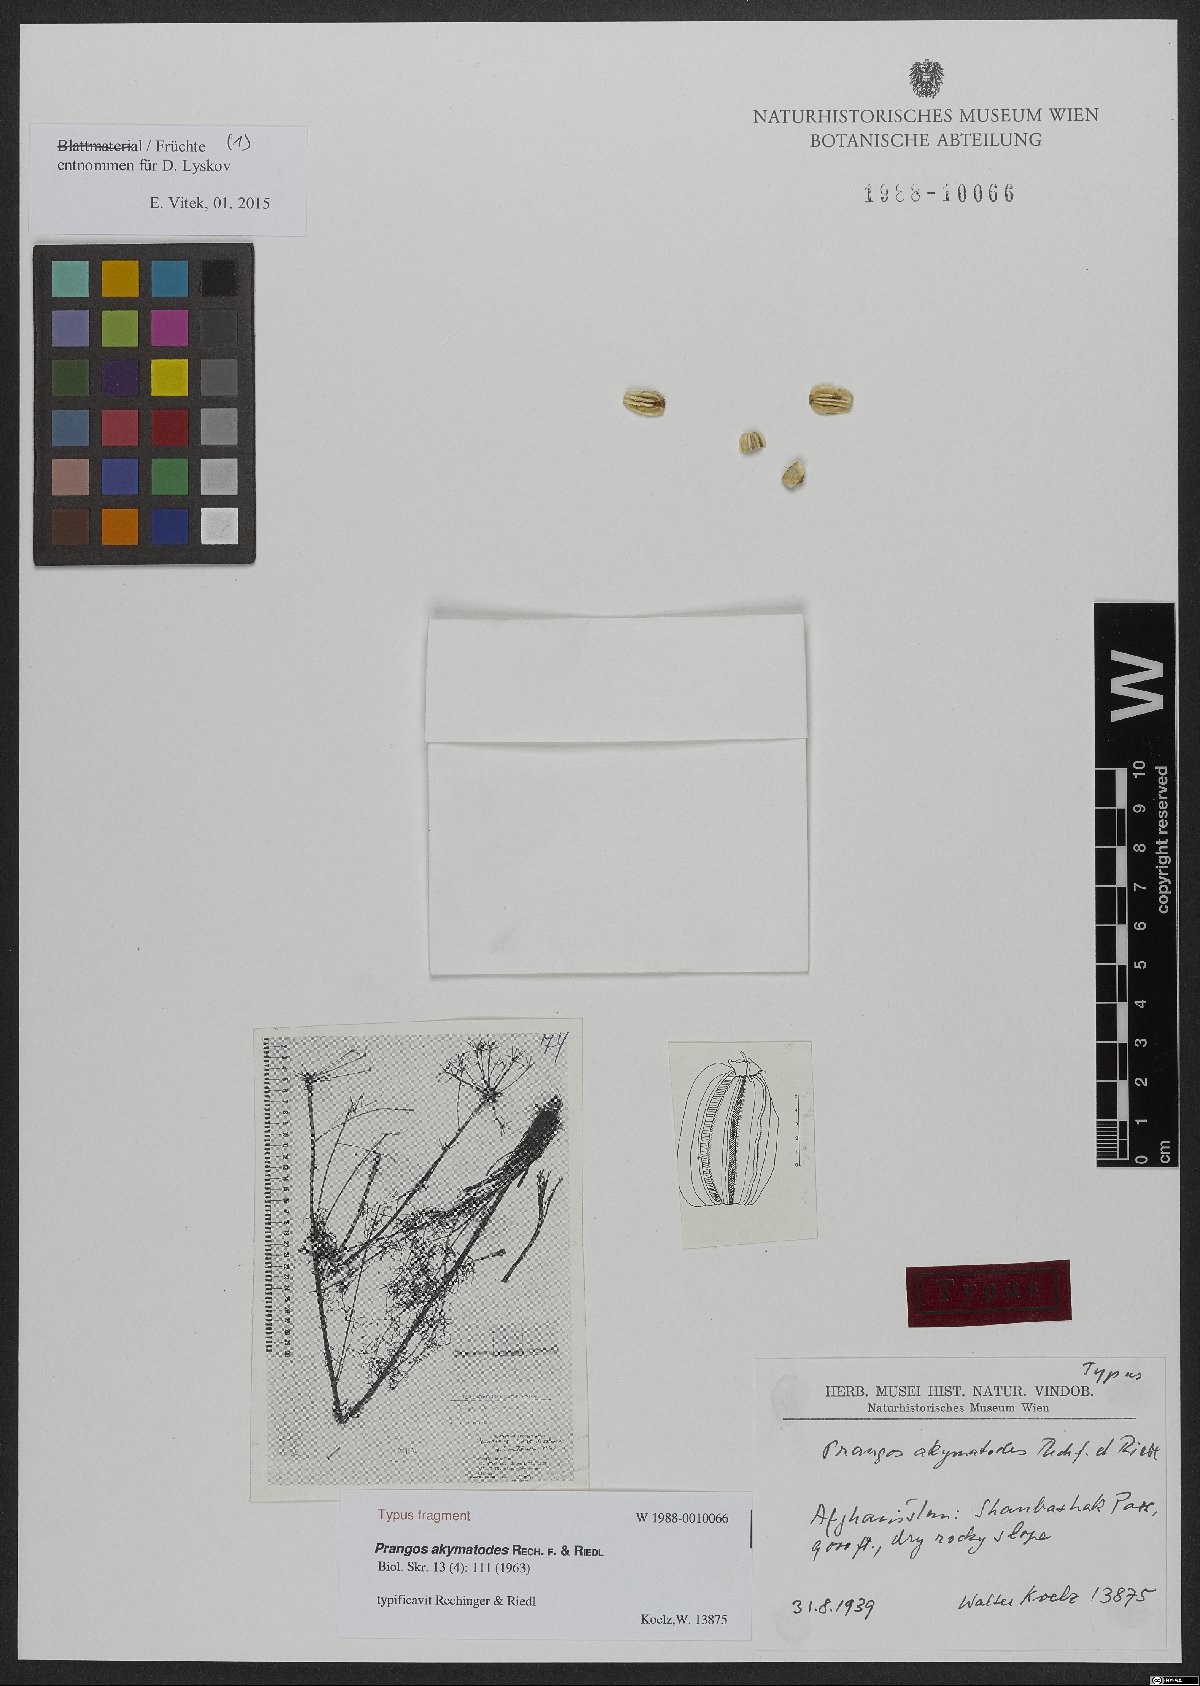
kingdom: Plantae
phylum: Tracheophyta
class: Magnoliopsida
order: Apiales
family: Apiaceae
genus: Prangos
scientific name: Prangos akymatodes
